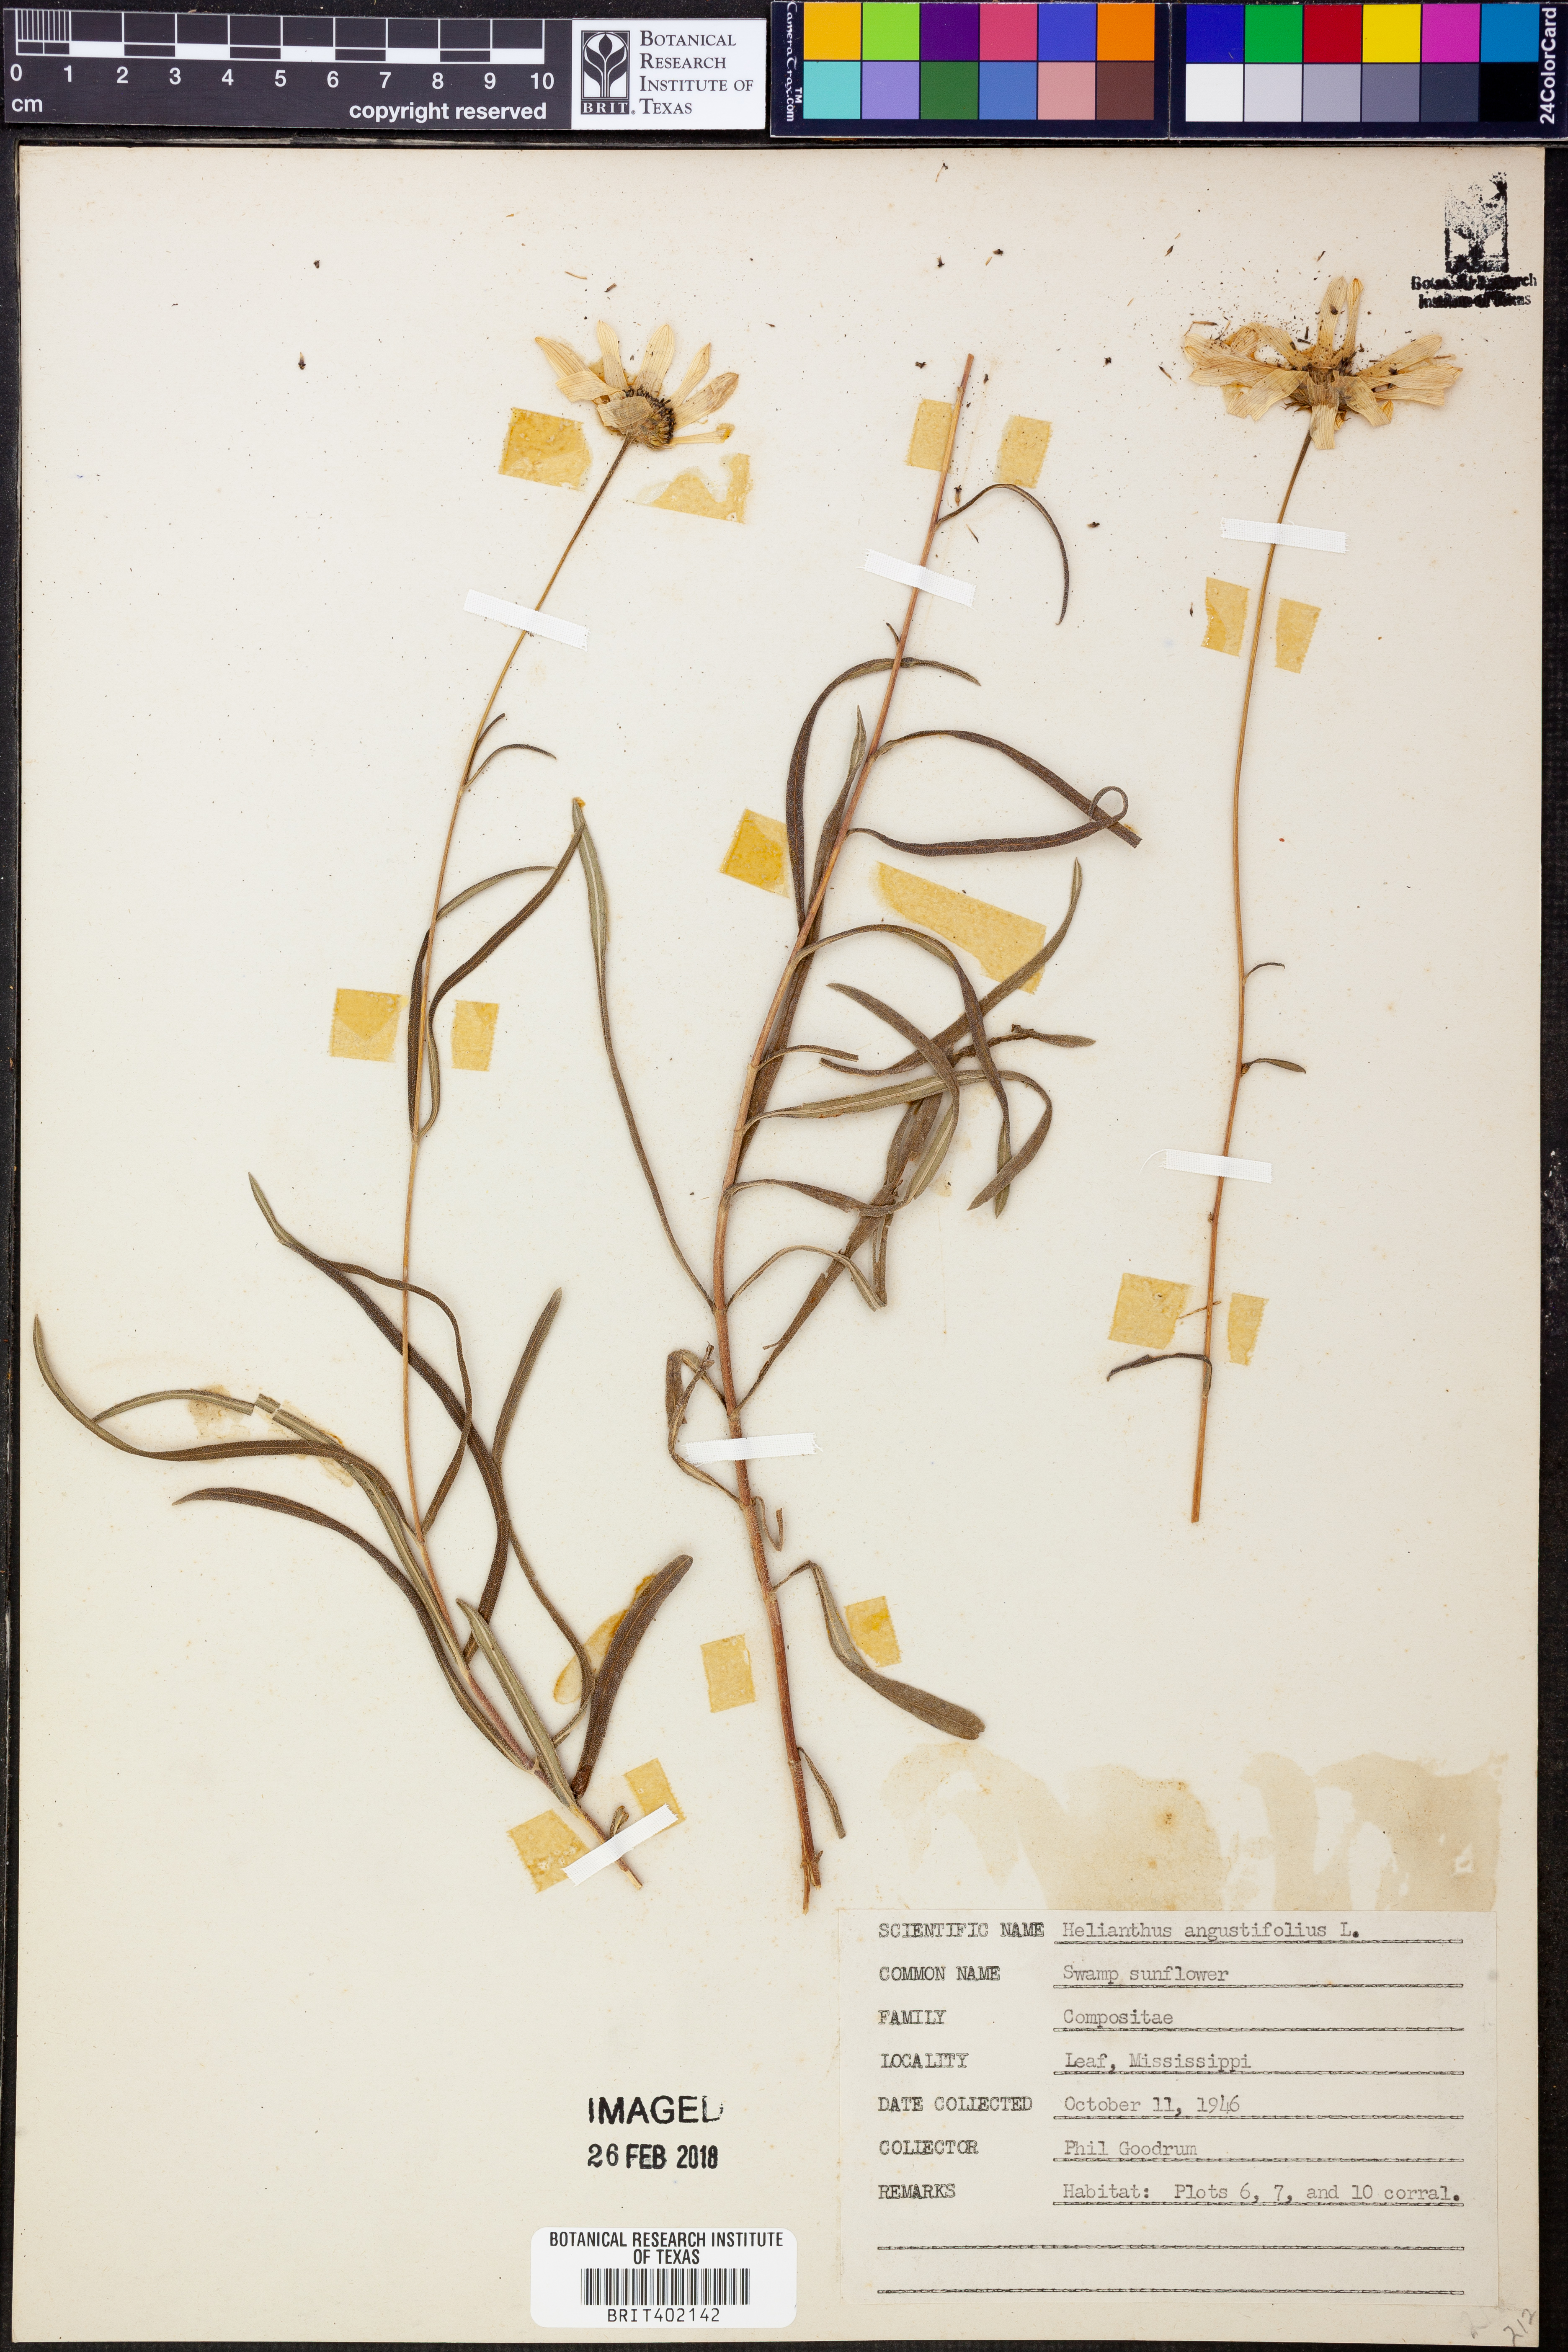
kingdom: Plantae
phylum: Tracheophyta
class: Magnoliopsida
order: Asterales
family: Asteraceae
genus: Helianthus
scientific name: Helianthus angustifolius
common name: Swamp sunflower
